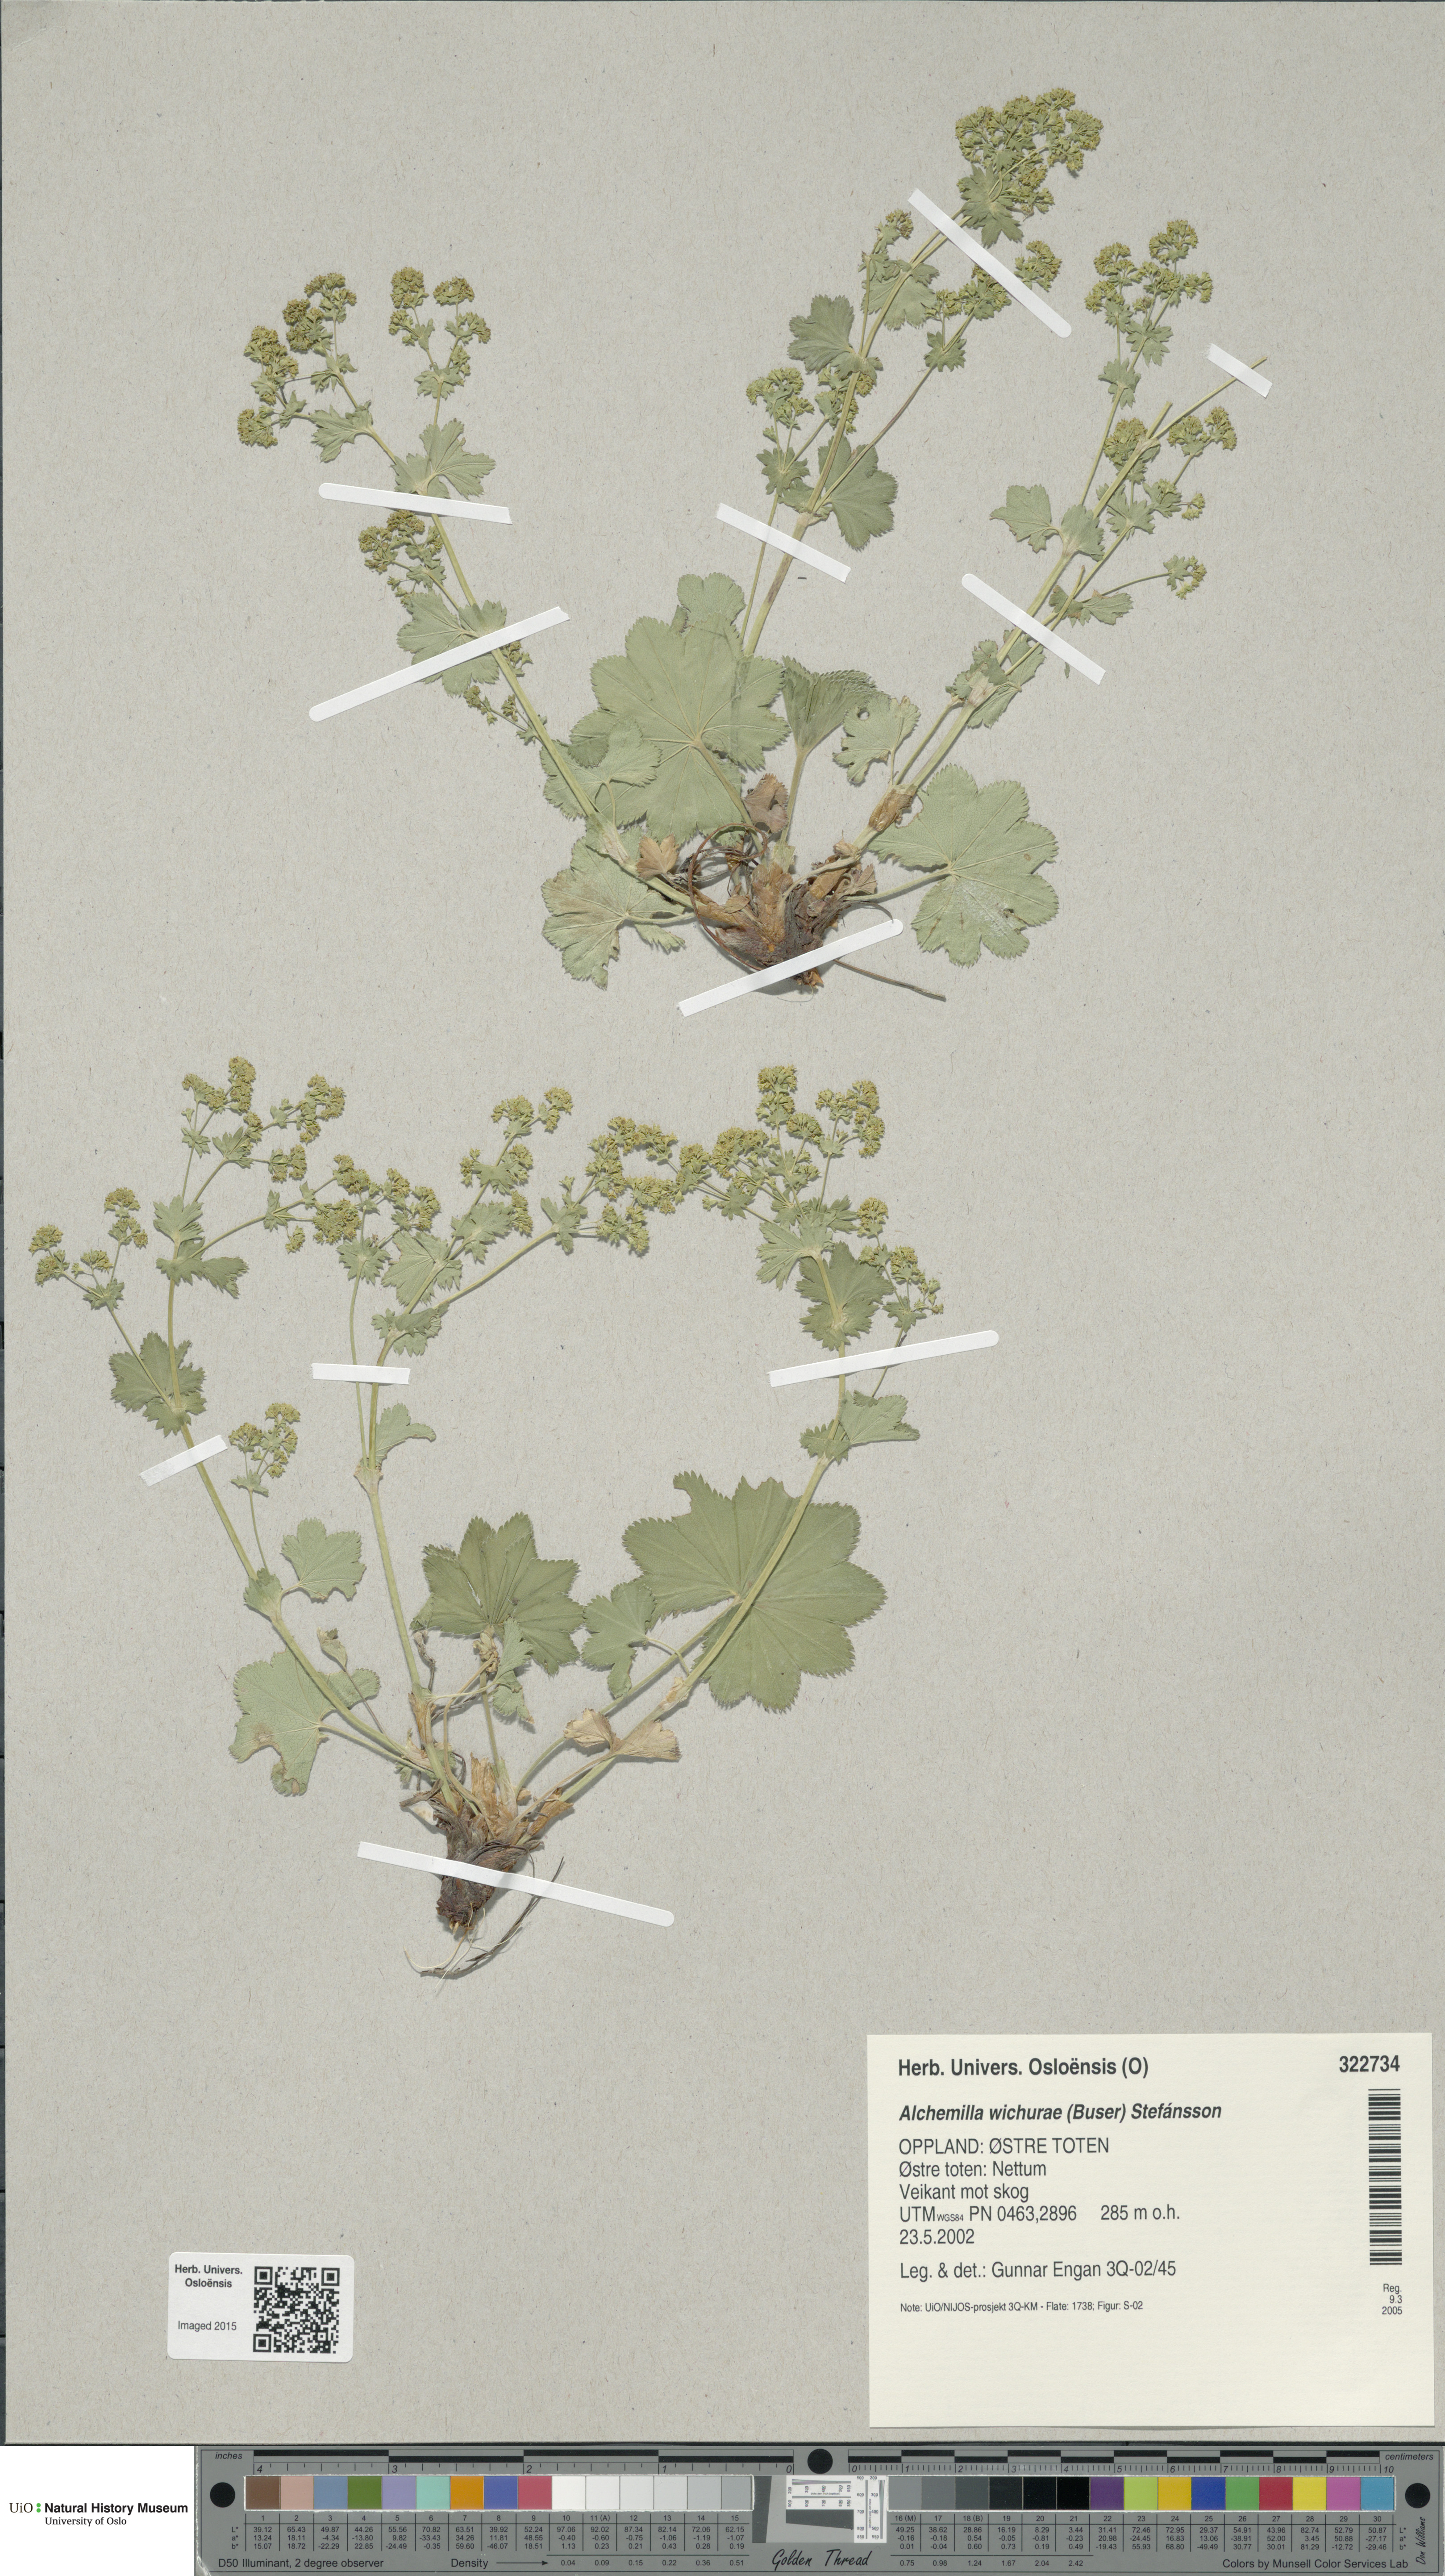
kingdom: Plantae
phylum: Tracheophyta
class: Magnoliopsida
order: Rosales
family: Rosaceae
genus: Alchemilla
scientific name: Alchemilla wichurae
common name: Rock lady's mantle
